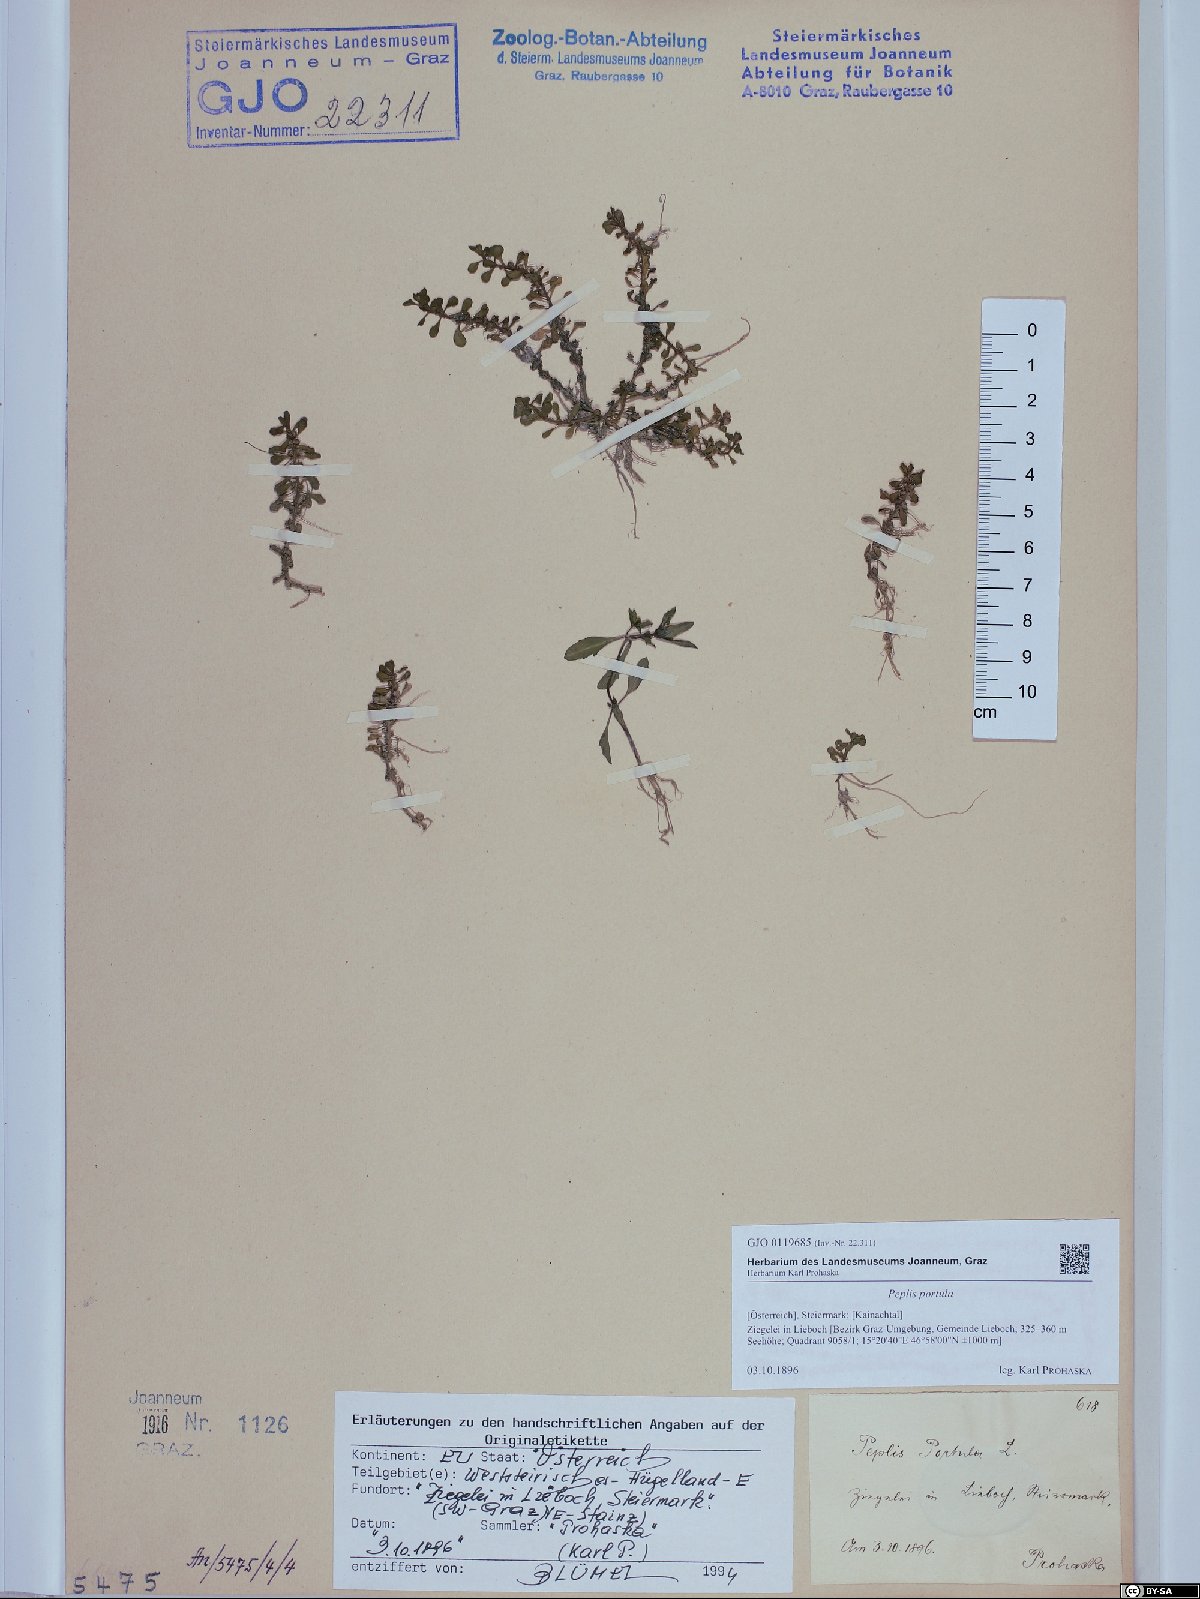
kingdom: Plantae
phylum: Tracheophyta
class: Magnoliopsida
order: Myrtales
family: Lythraceae
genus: Lythrum
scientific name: Lythrum portula
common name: Water purslane
